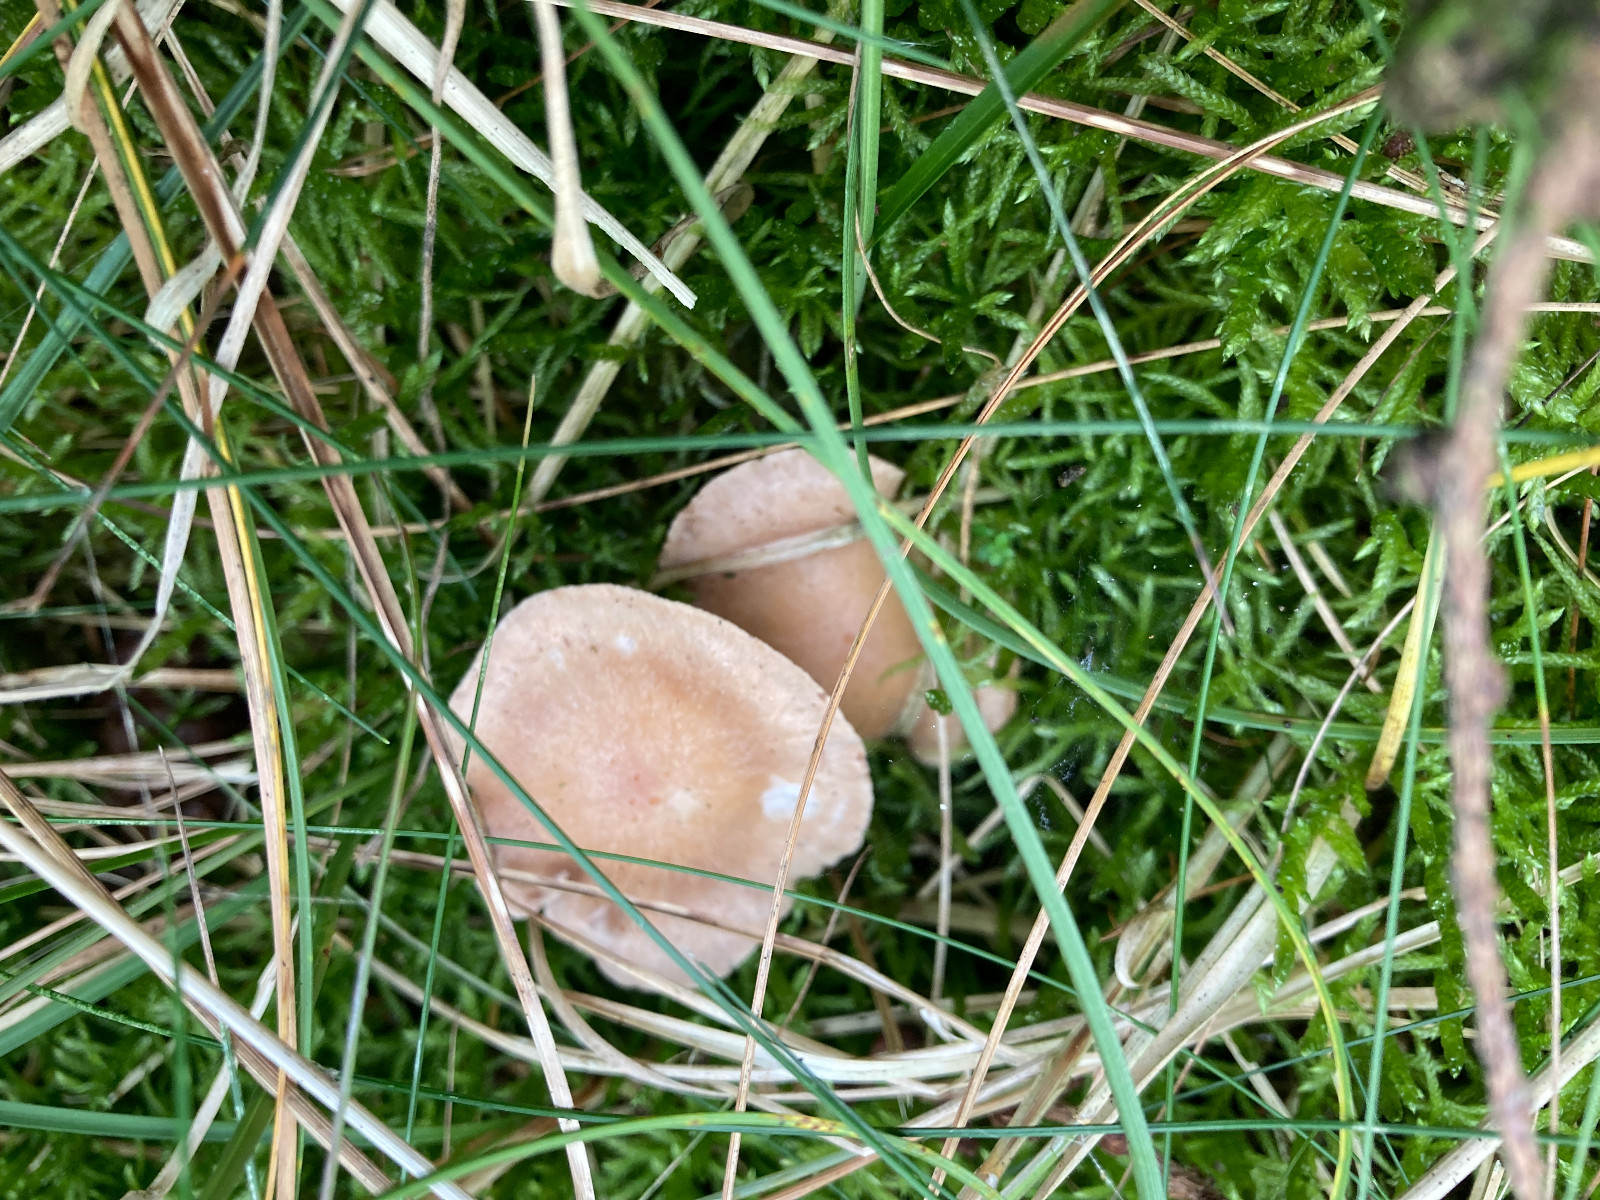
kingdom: Fungi
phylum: Basidiomycota
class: Agaricomycetes
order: Agaricales
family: Omphalotaceae
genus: Collybiopsis
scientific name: Collybiopsis peronata
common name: bestøvlet fladhat
